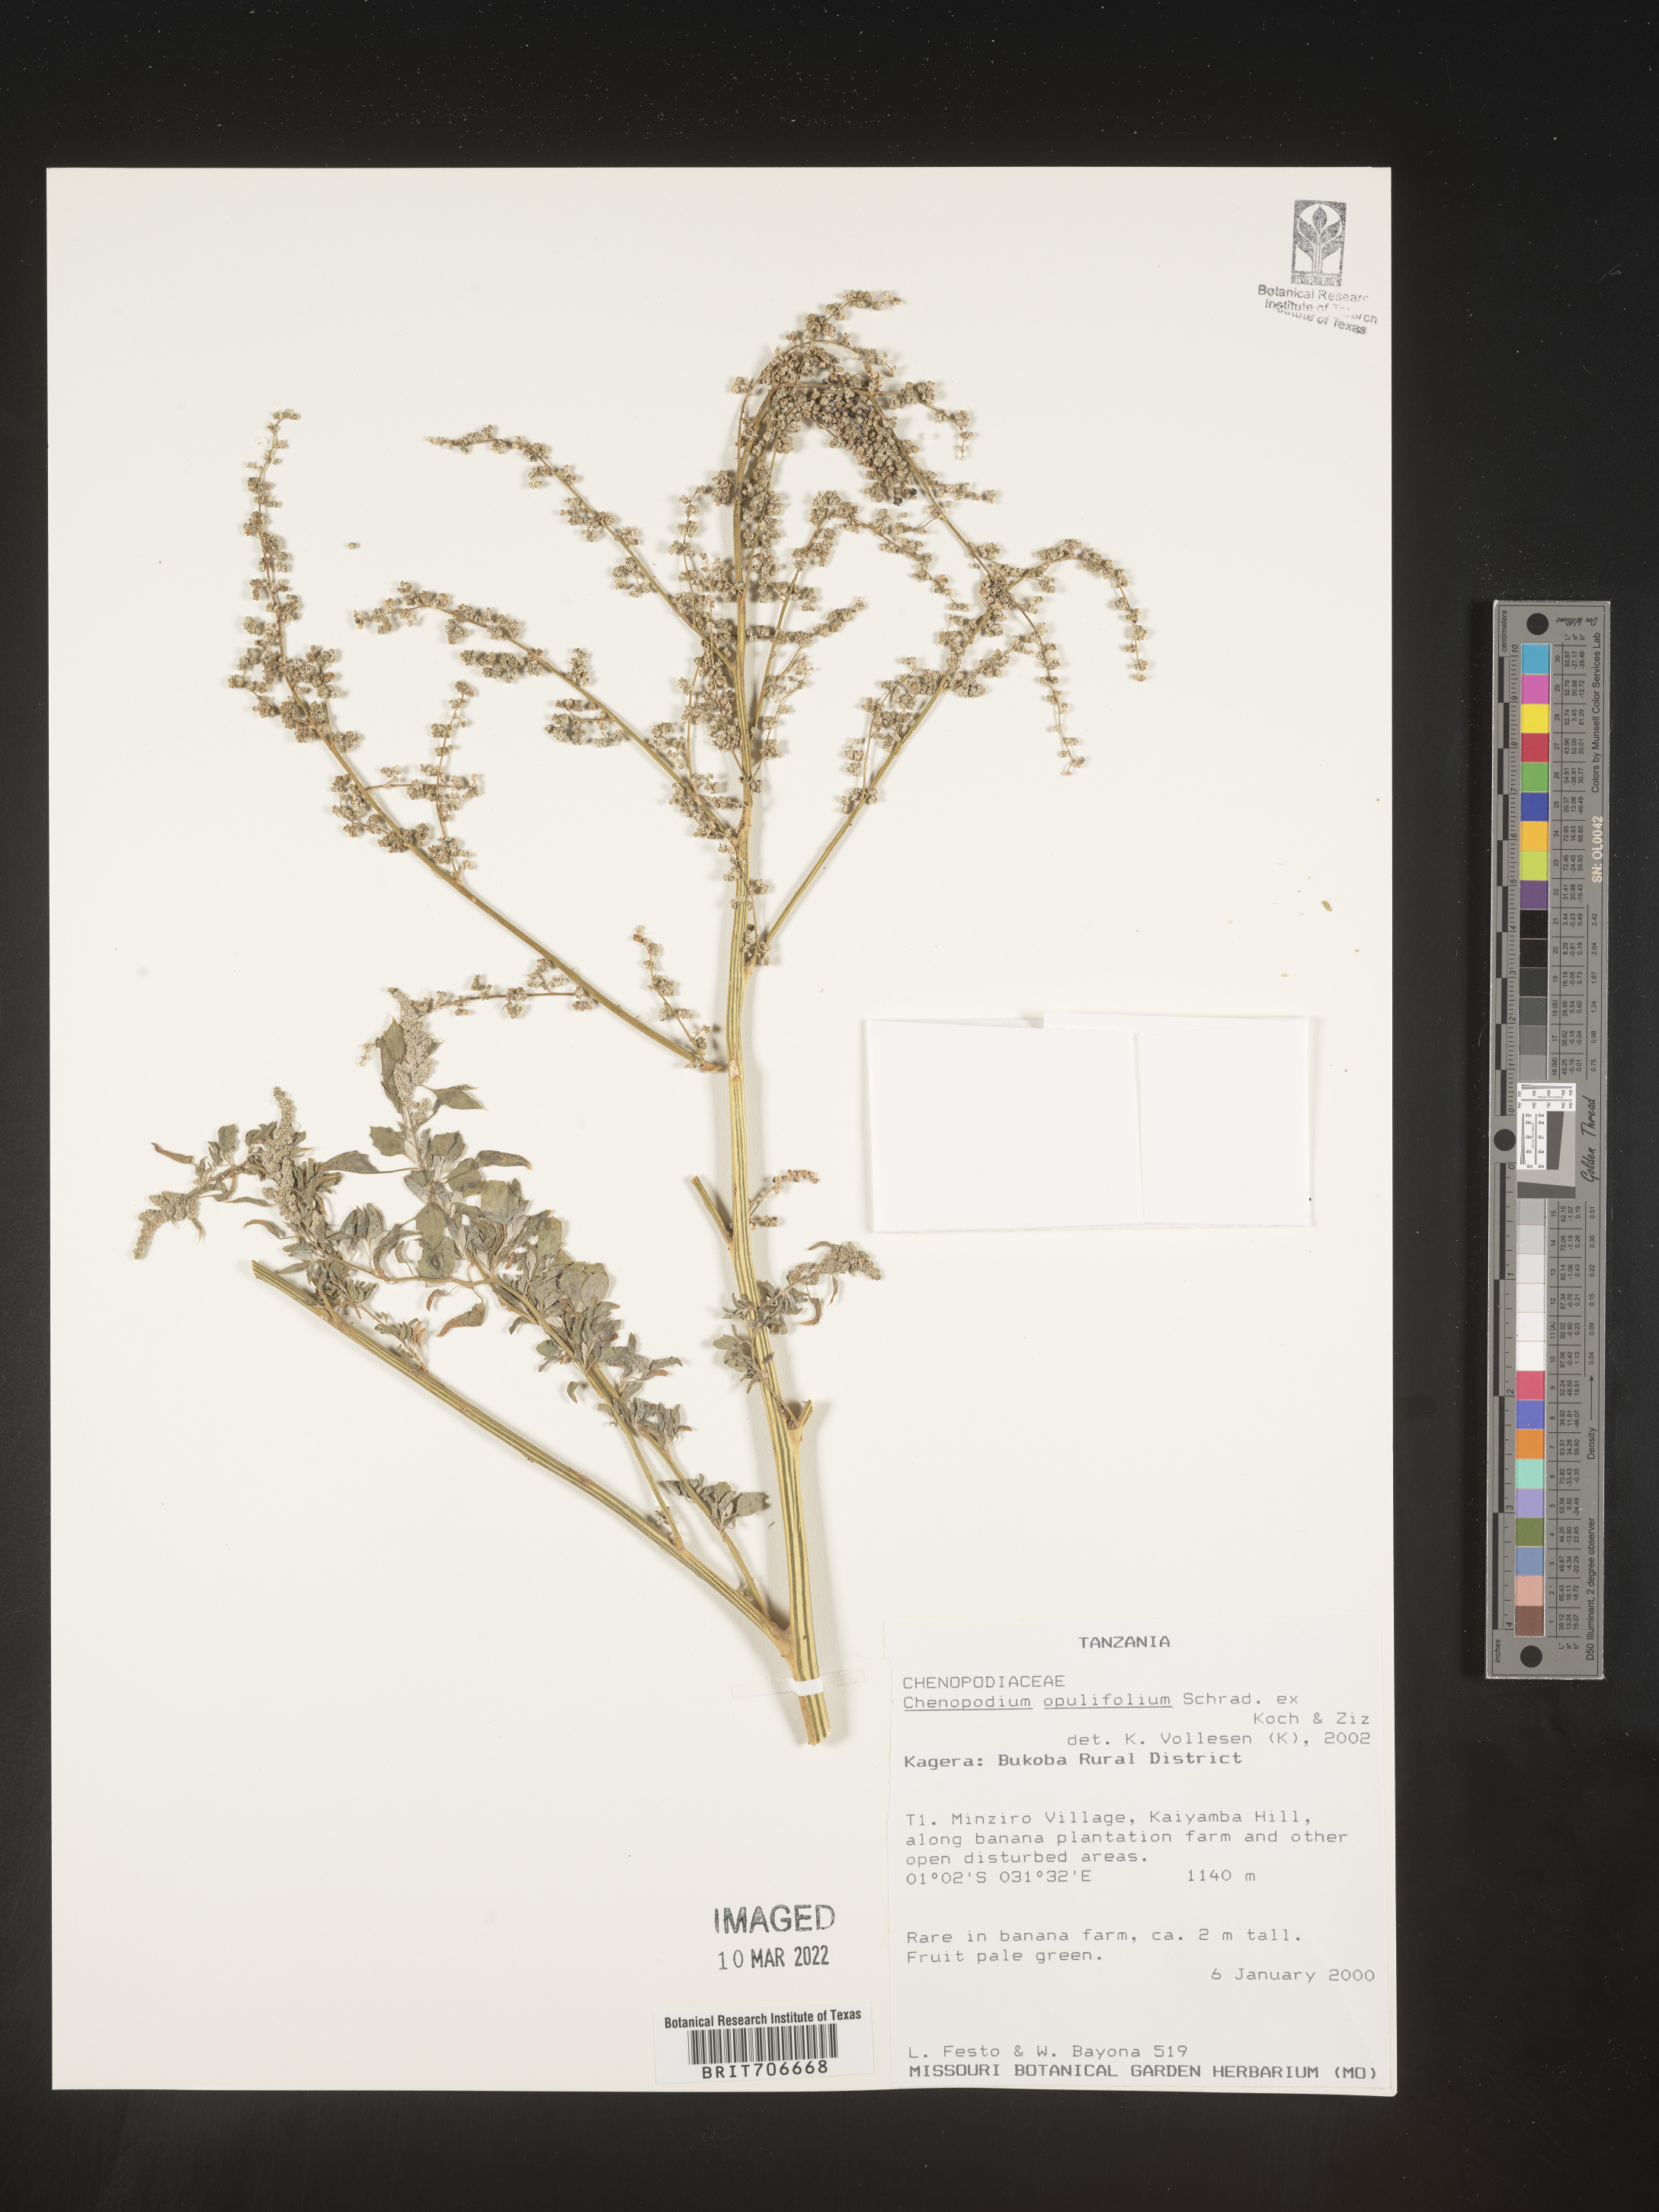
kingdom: Plantae
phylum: Tracheophyta
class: Magnoliopsida
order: Caryophyllales
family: Amaranthaceae
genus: Chenopodium
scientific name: Chenopodium
